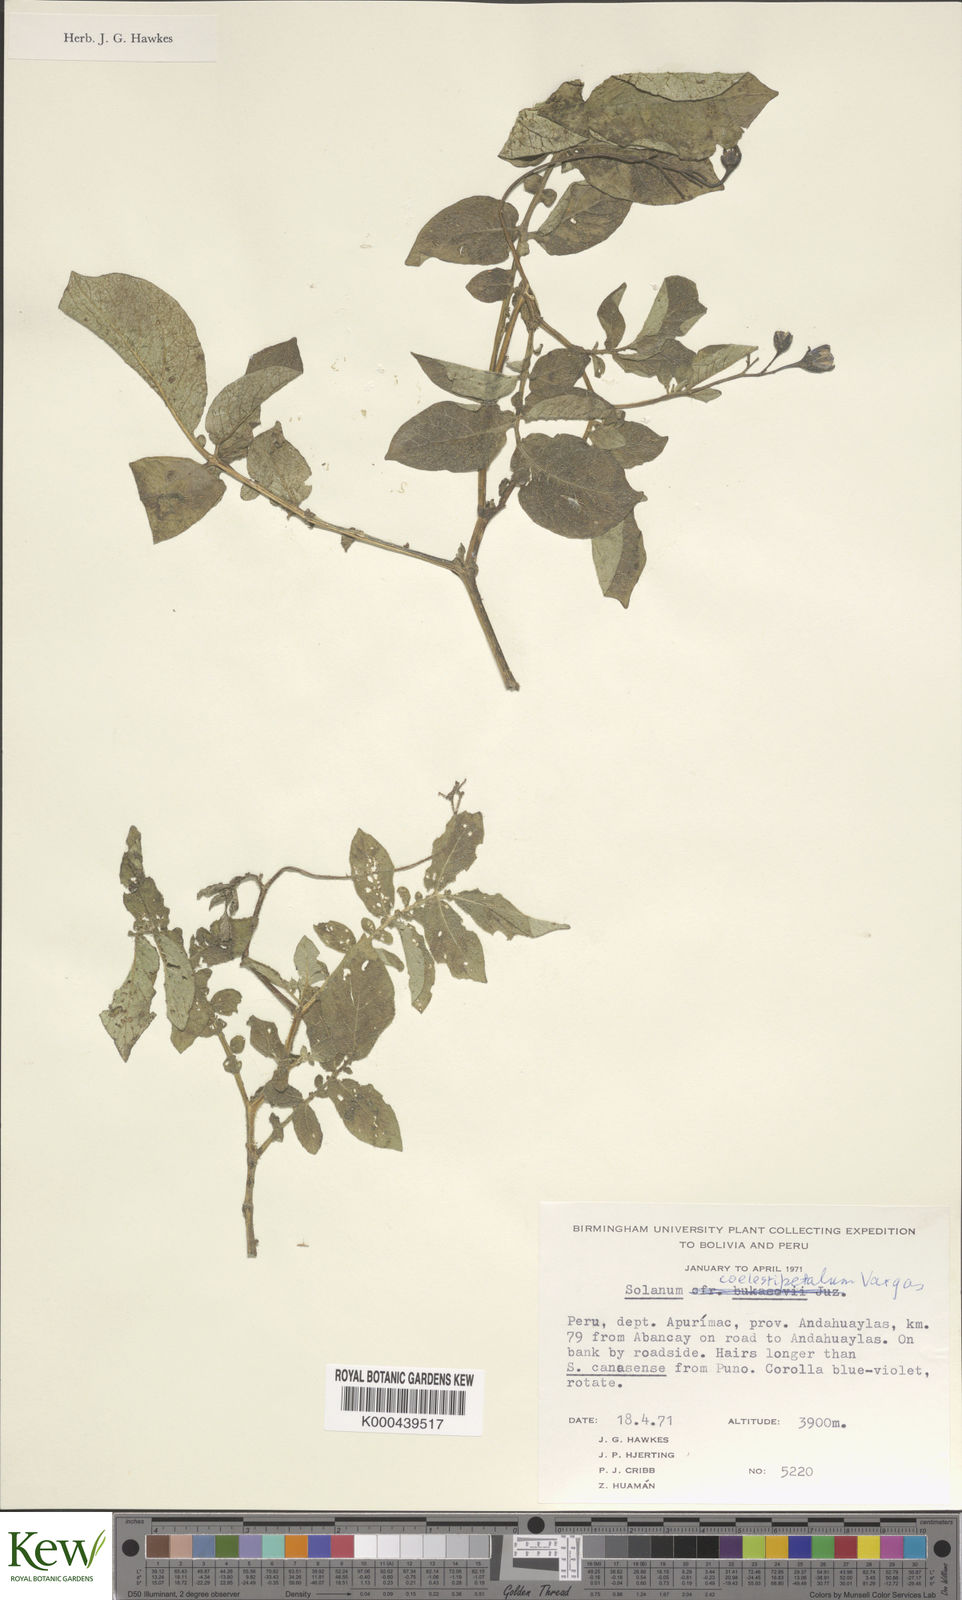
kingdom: Plantae
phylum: Tracheophyta
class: Magnoliopsida
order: Solanales
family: Solanaceae
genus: Solanum
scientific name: Solanum candolleanum
